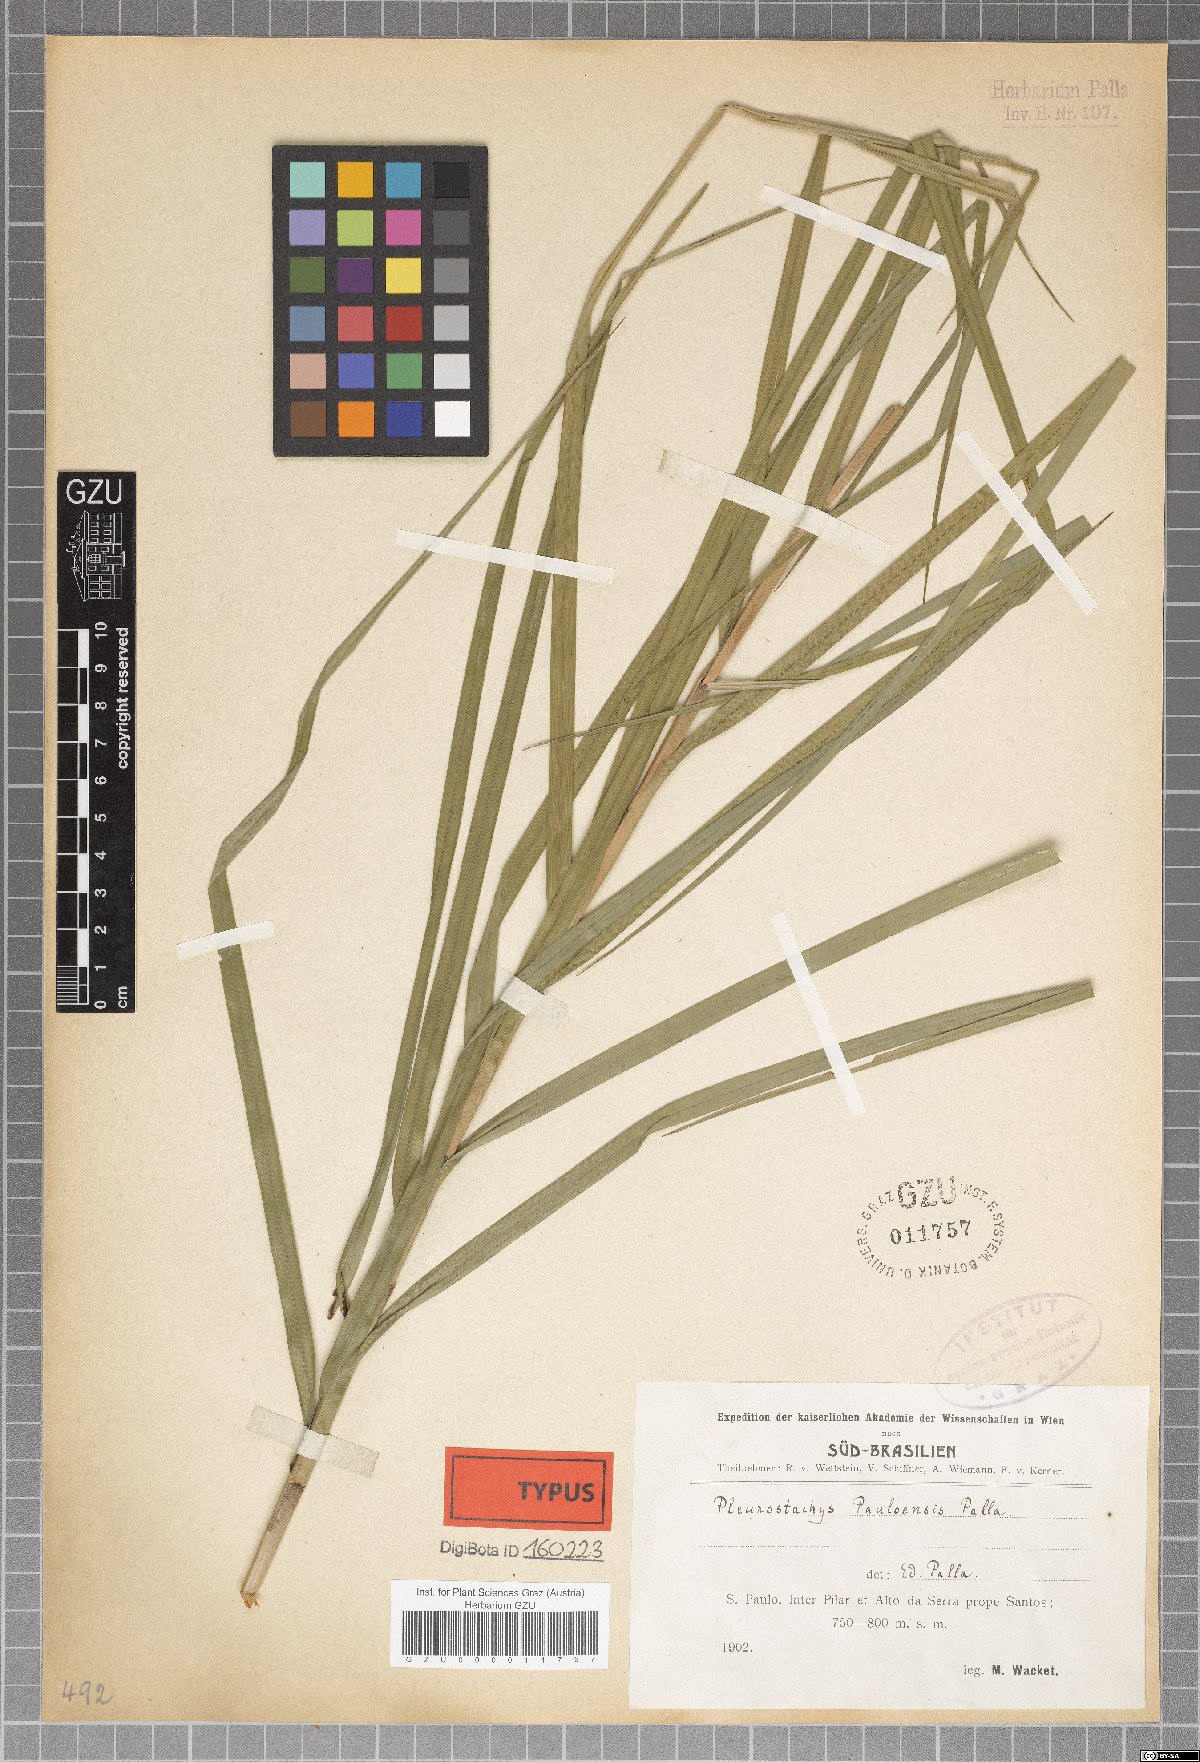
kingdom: Plantae
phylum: Tracheophyta
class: Liliopsida
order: Poales
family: Cyperaceae
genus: Rhynchospora
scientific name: Rhynchospora foliosa
